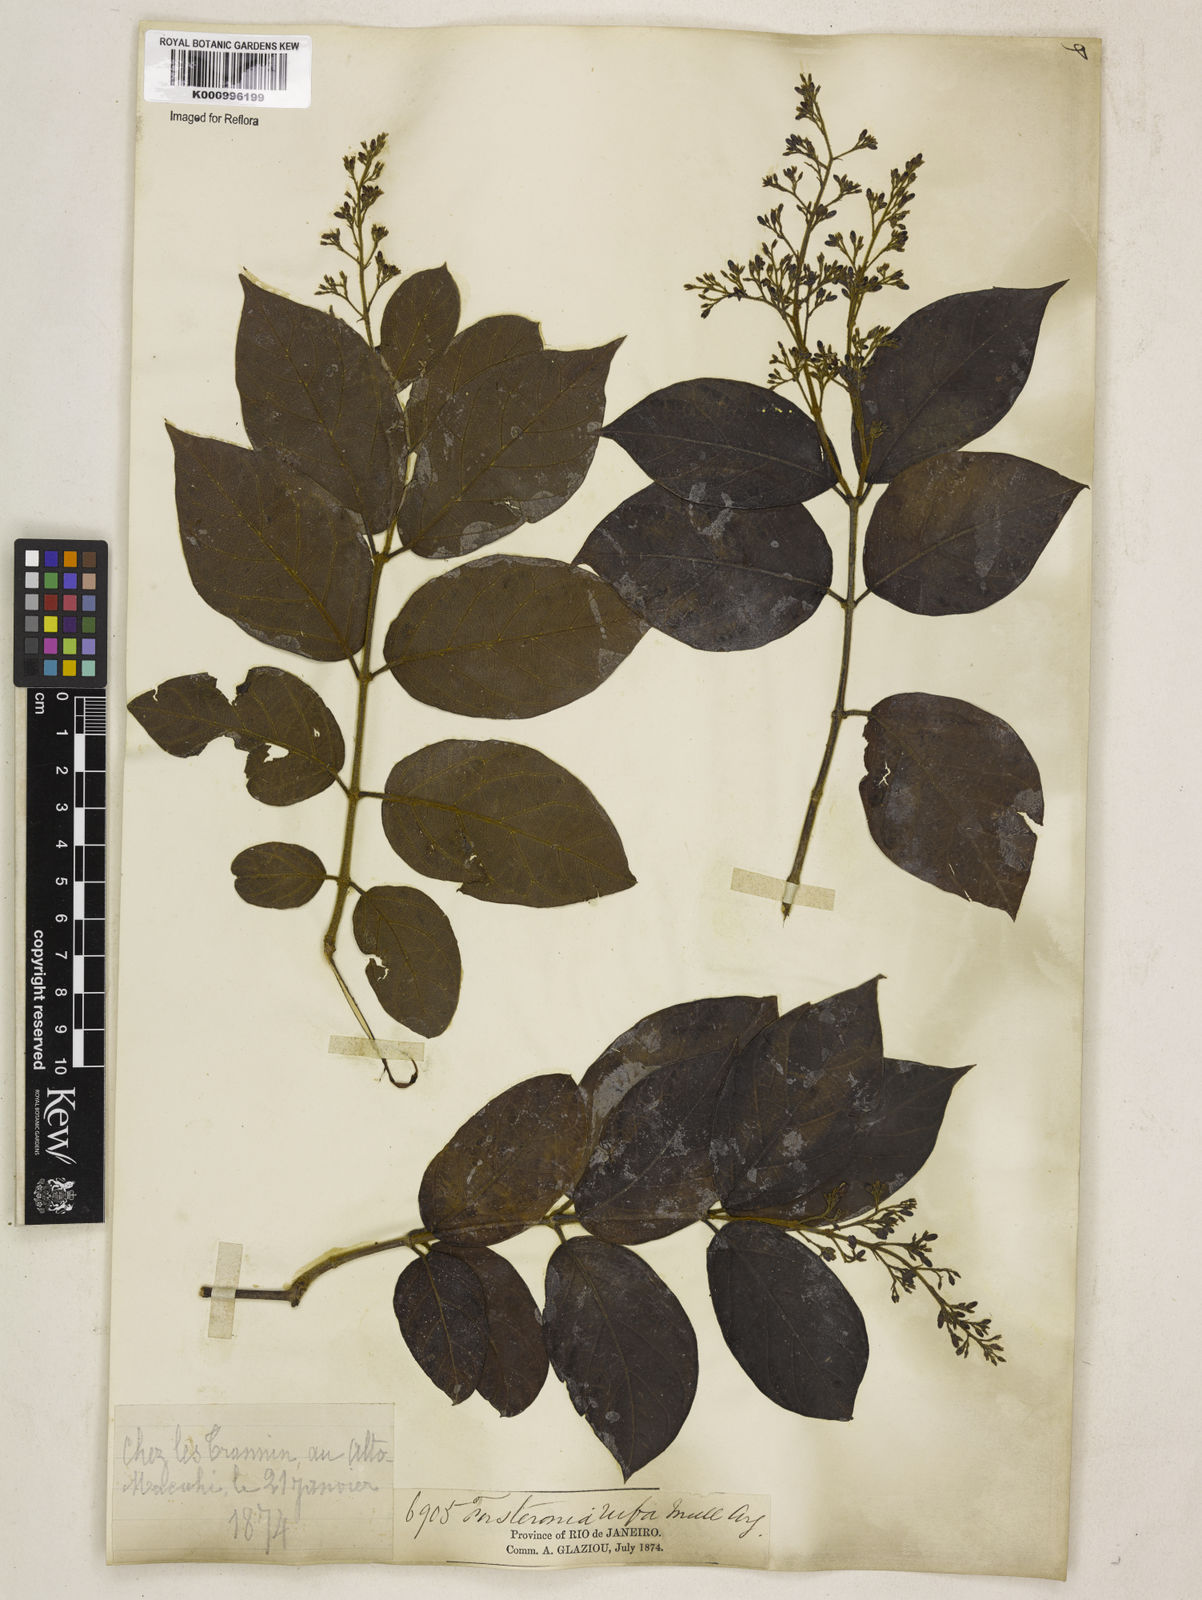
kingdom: Plantae
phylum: Tracheophyta
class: Magnoliopsida
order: Gentianales
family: Apocynaceae
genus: Forsteronia
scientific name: Forsteronia
